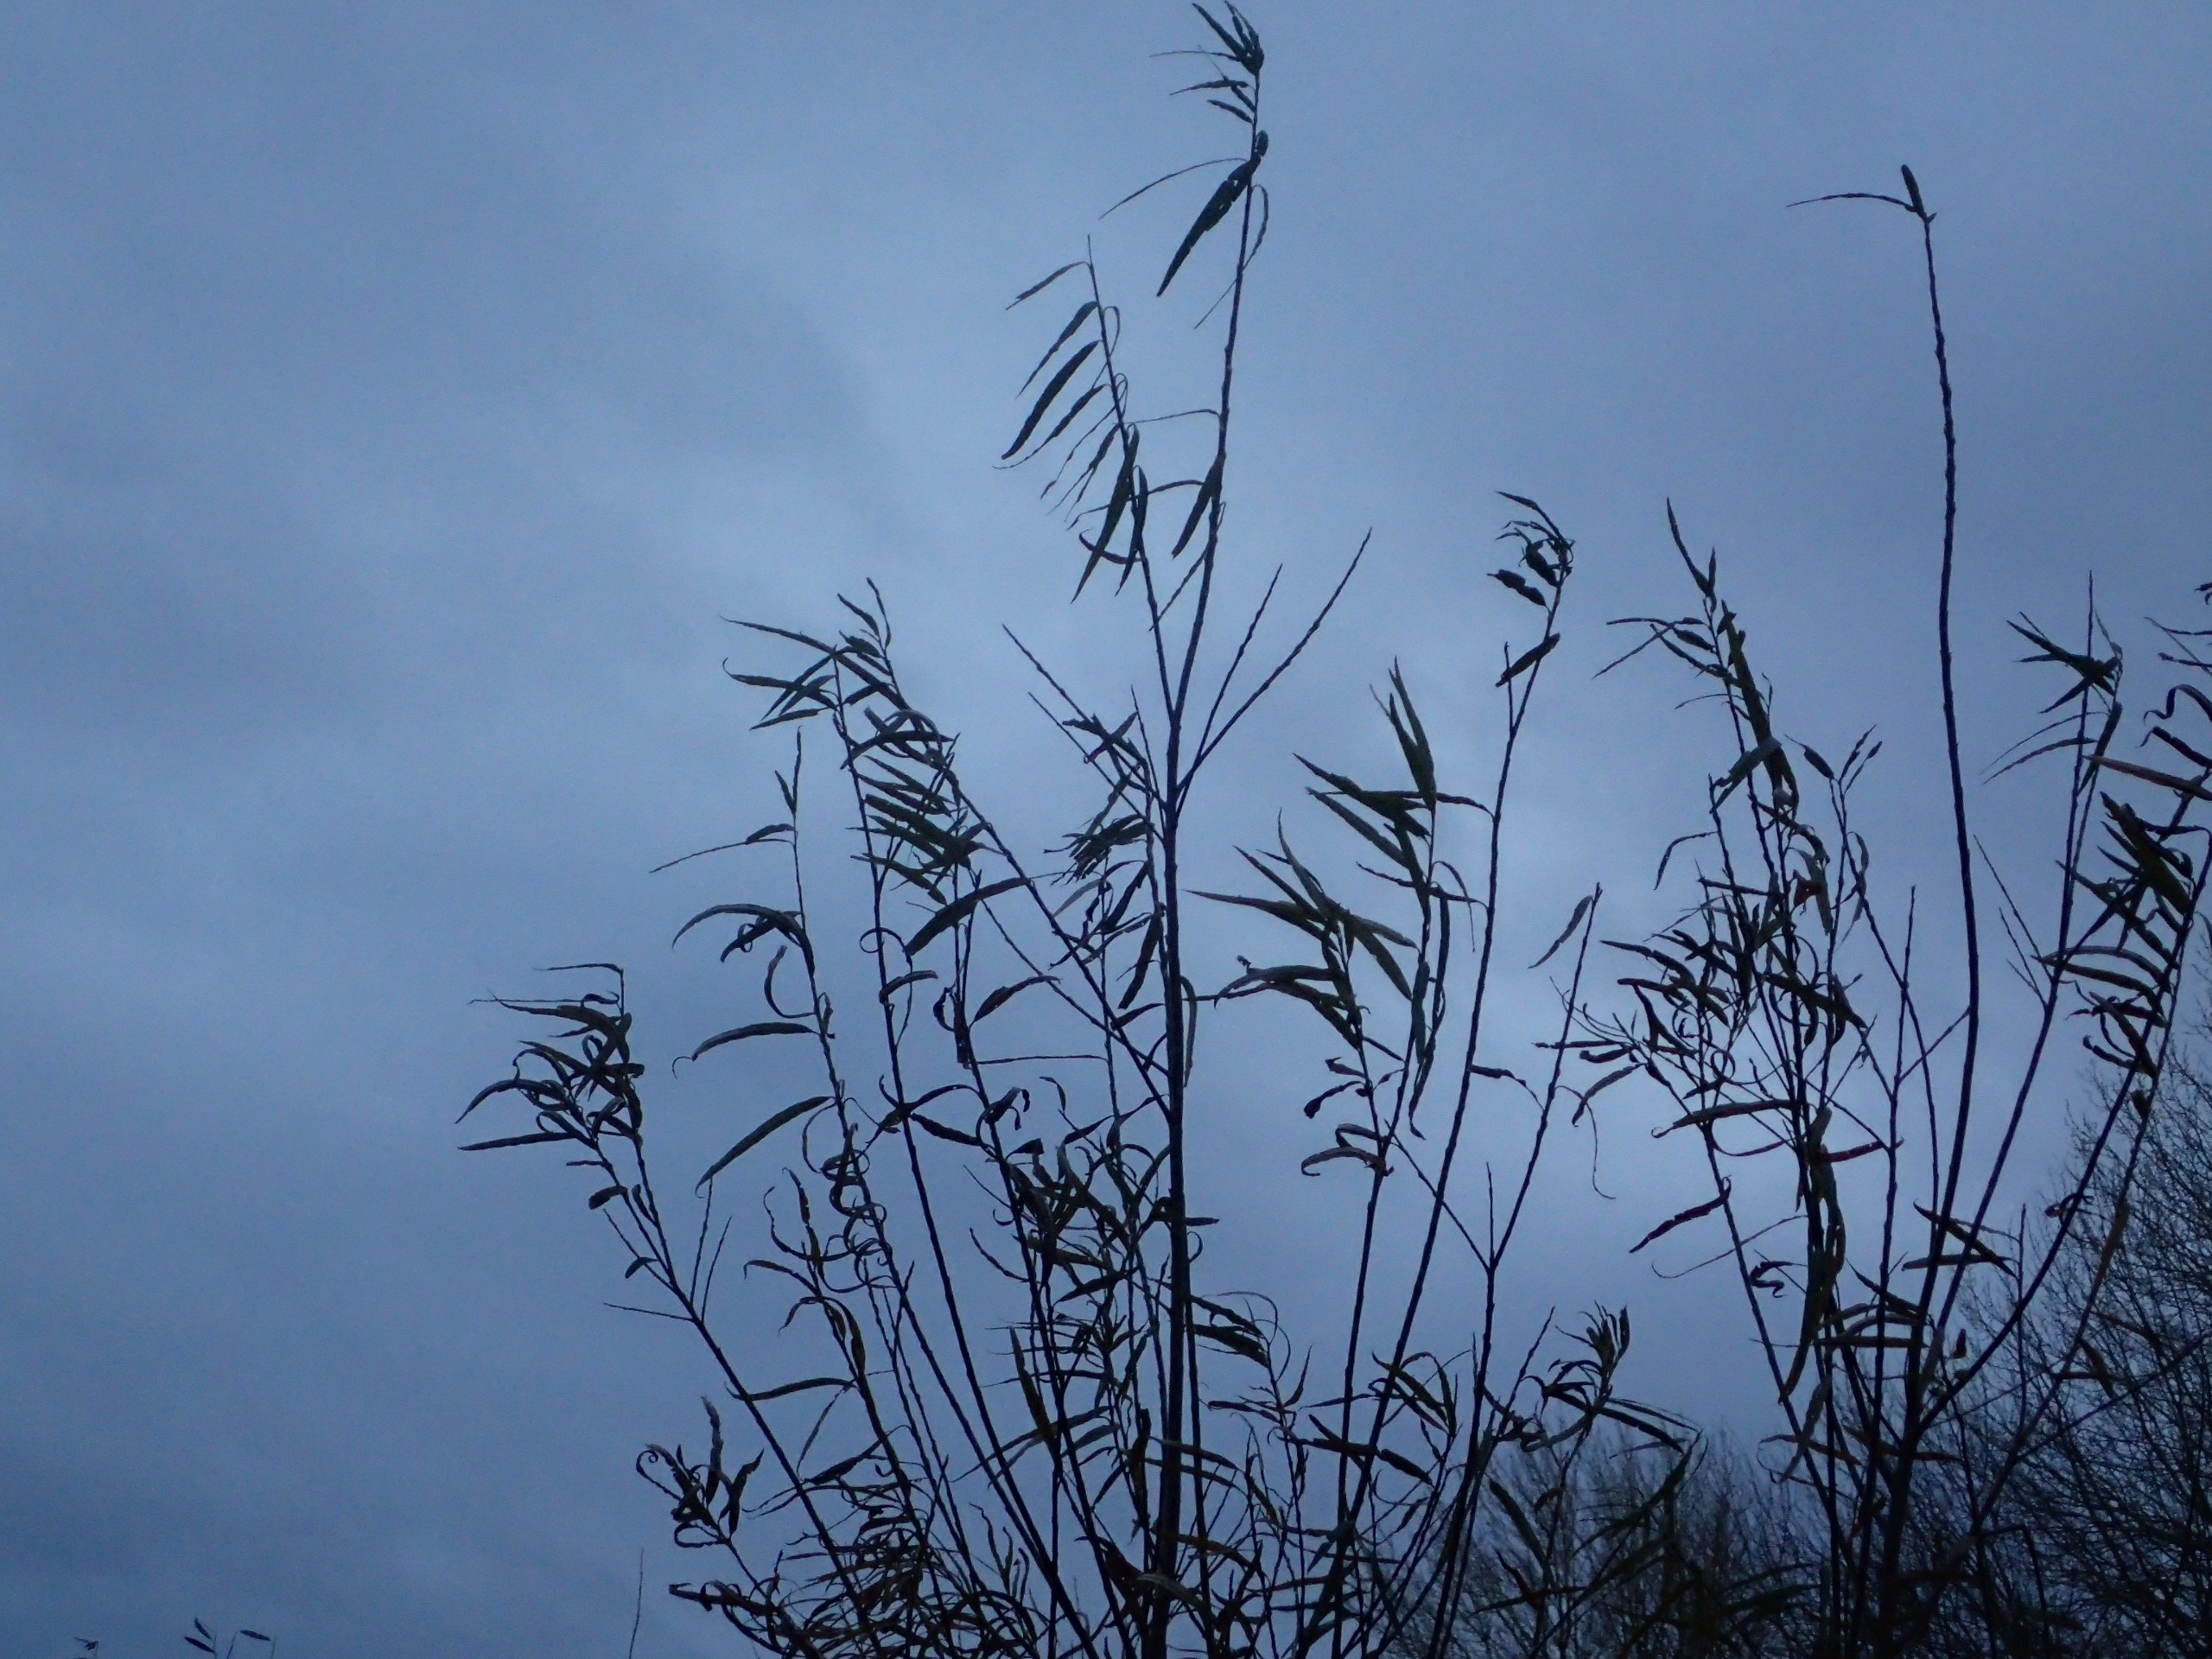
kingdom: Plantae
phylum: Tracheophyta
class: Magnoliopsida
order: Malpighiales
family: Salicaceae
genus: Salix
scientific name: Salix viminalis
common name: Bånd-pil
